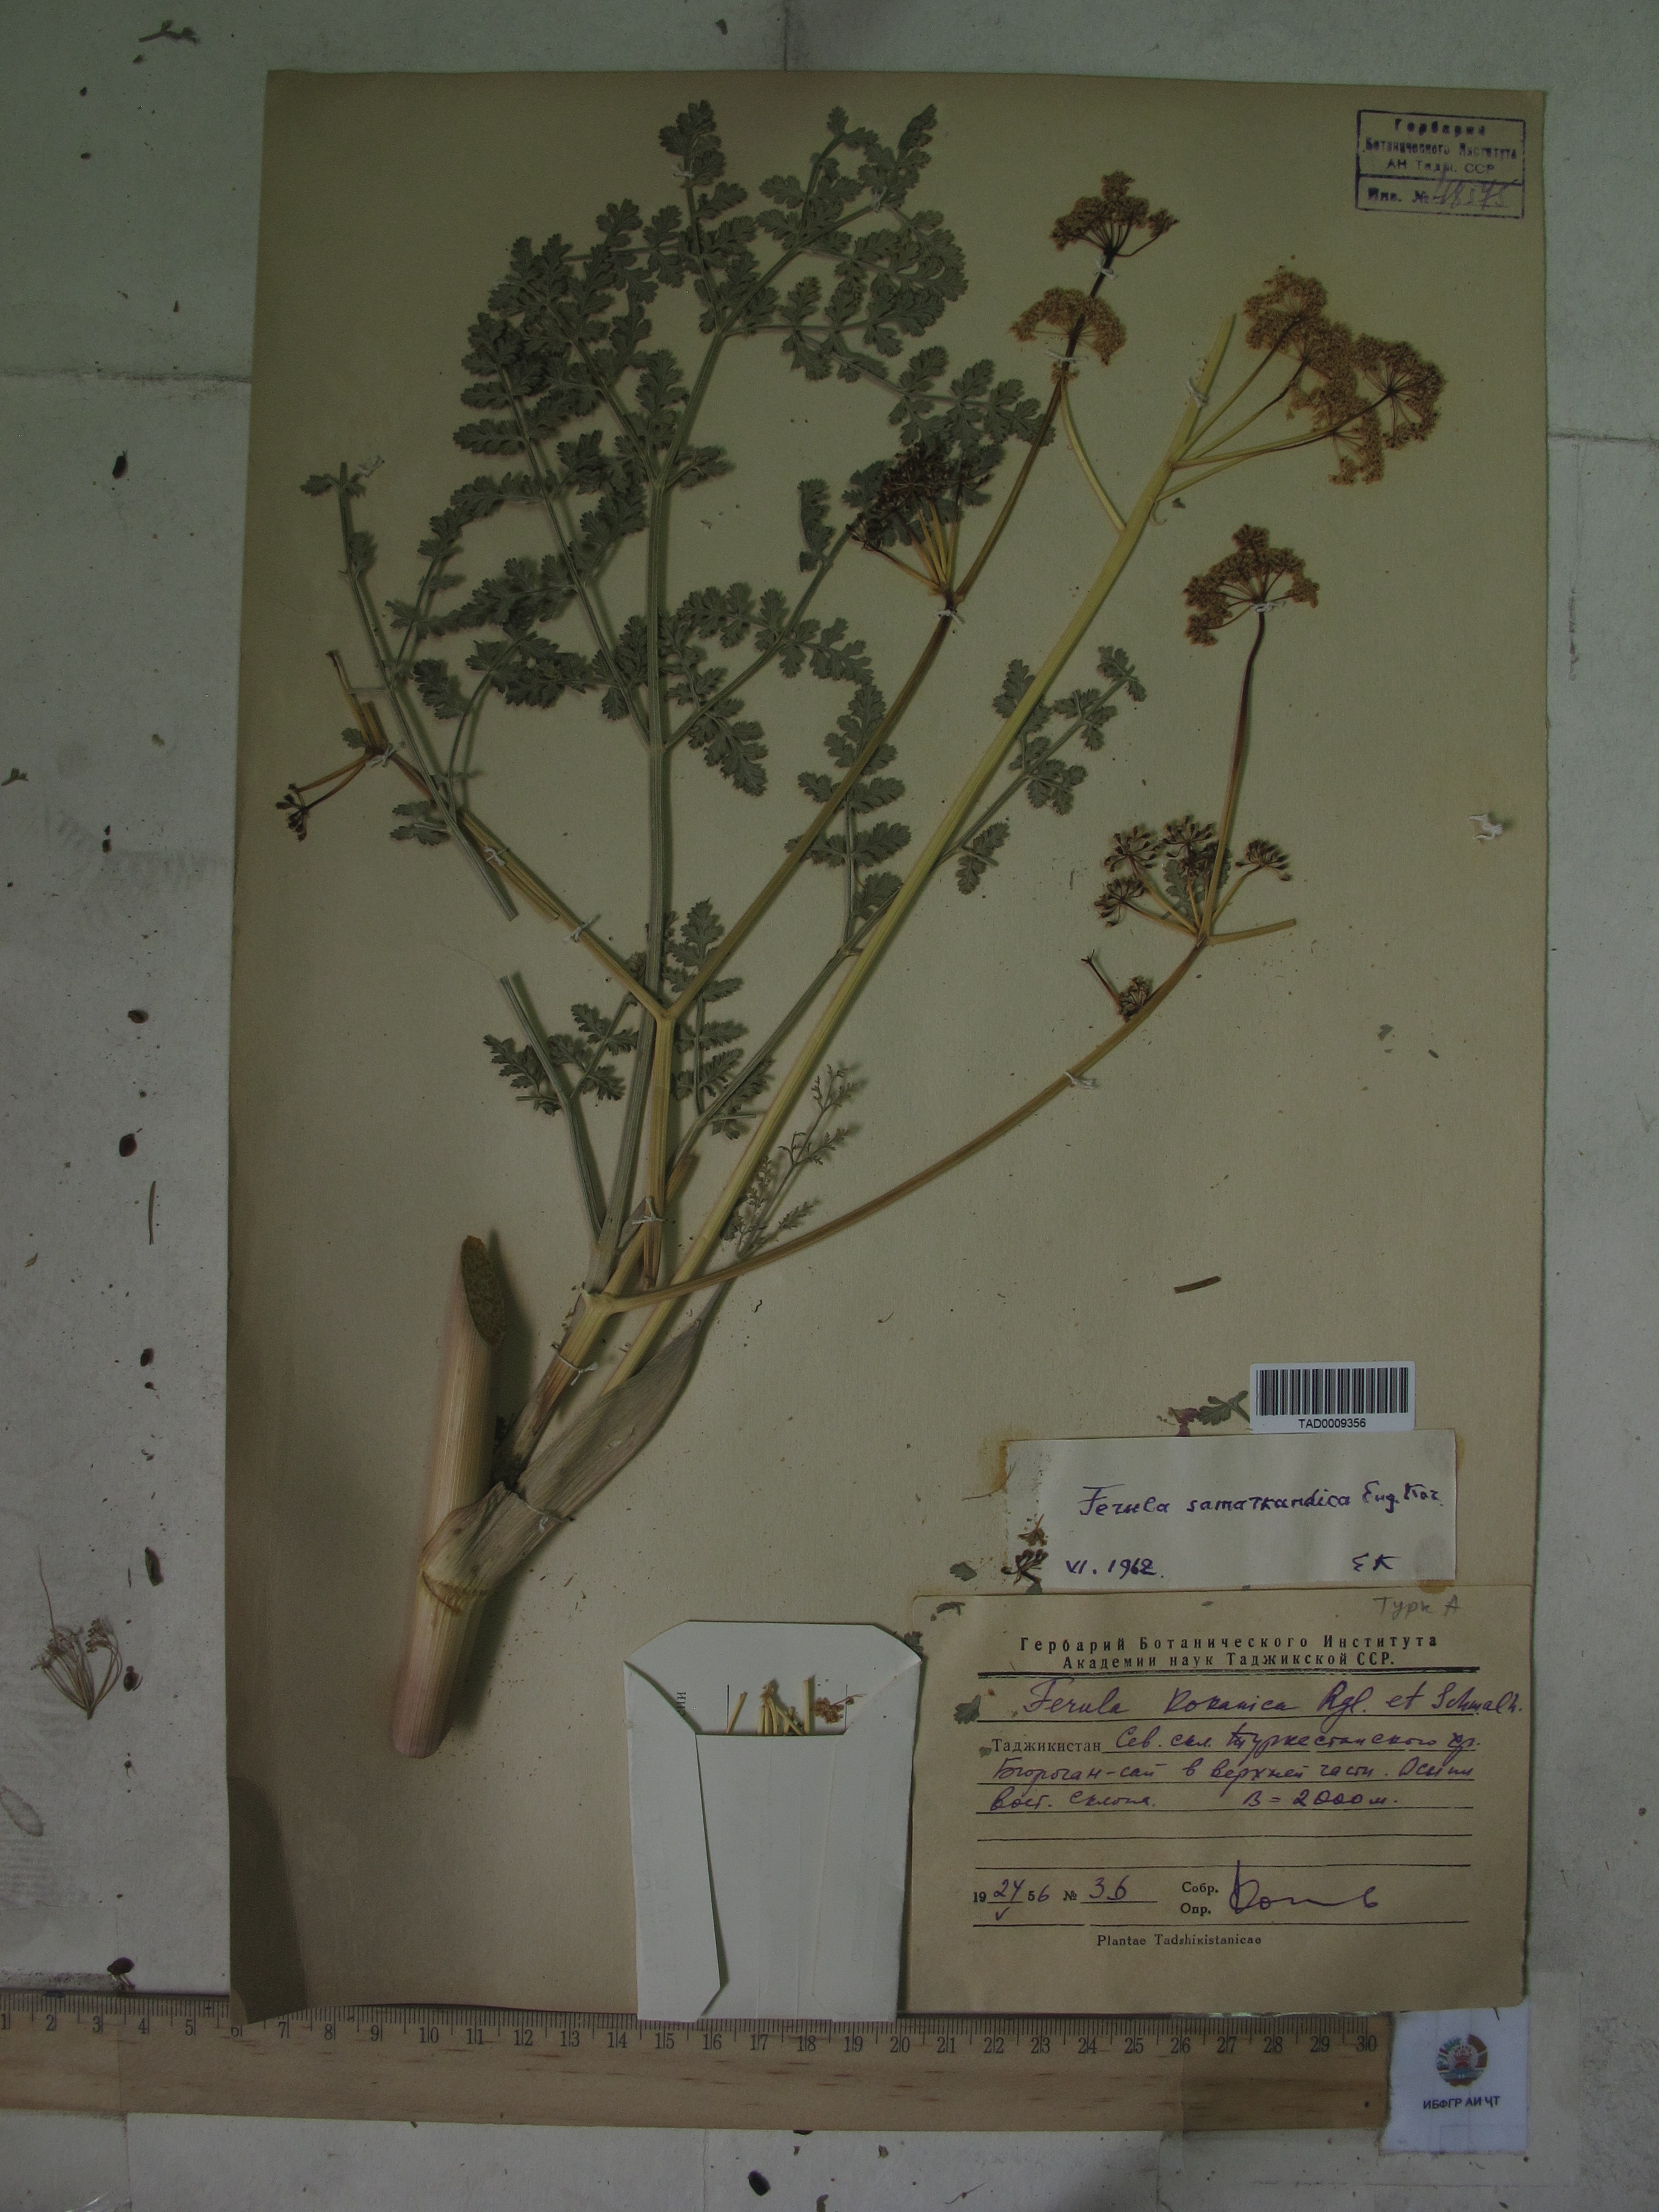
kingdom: Plantae
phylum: Tracheophyta
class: Magnoliopsida
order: Apiales
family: Apiaceae
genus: Ferula
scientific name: Ferula samarkandica
